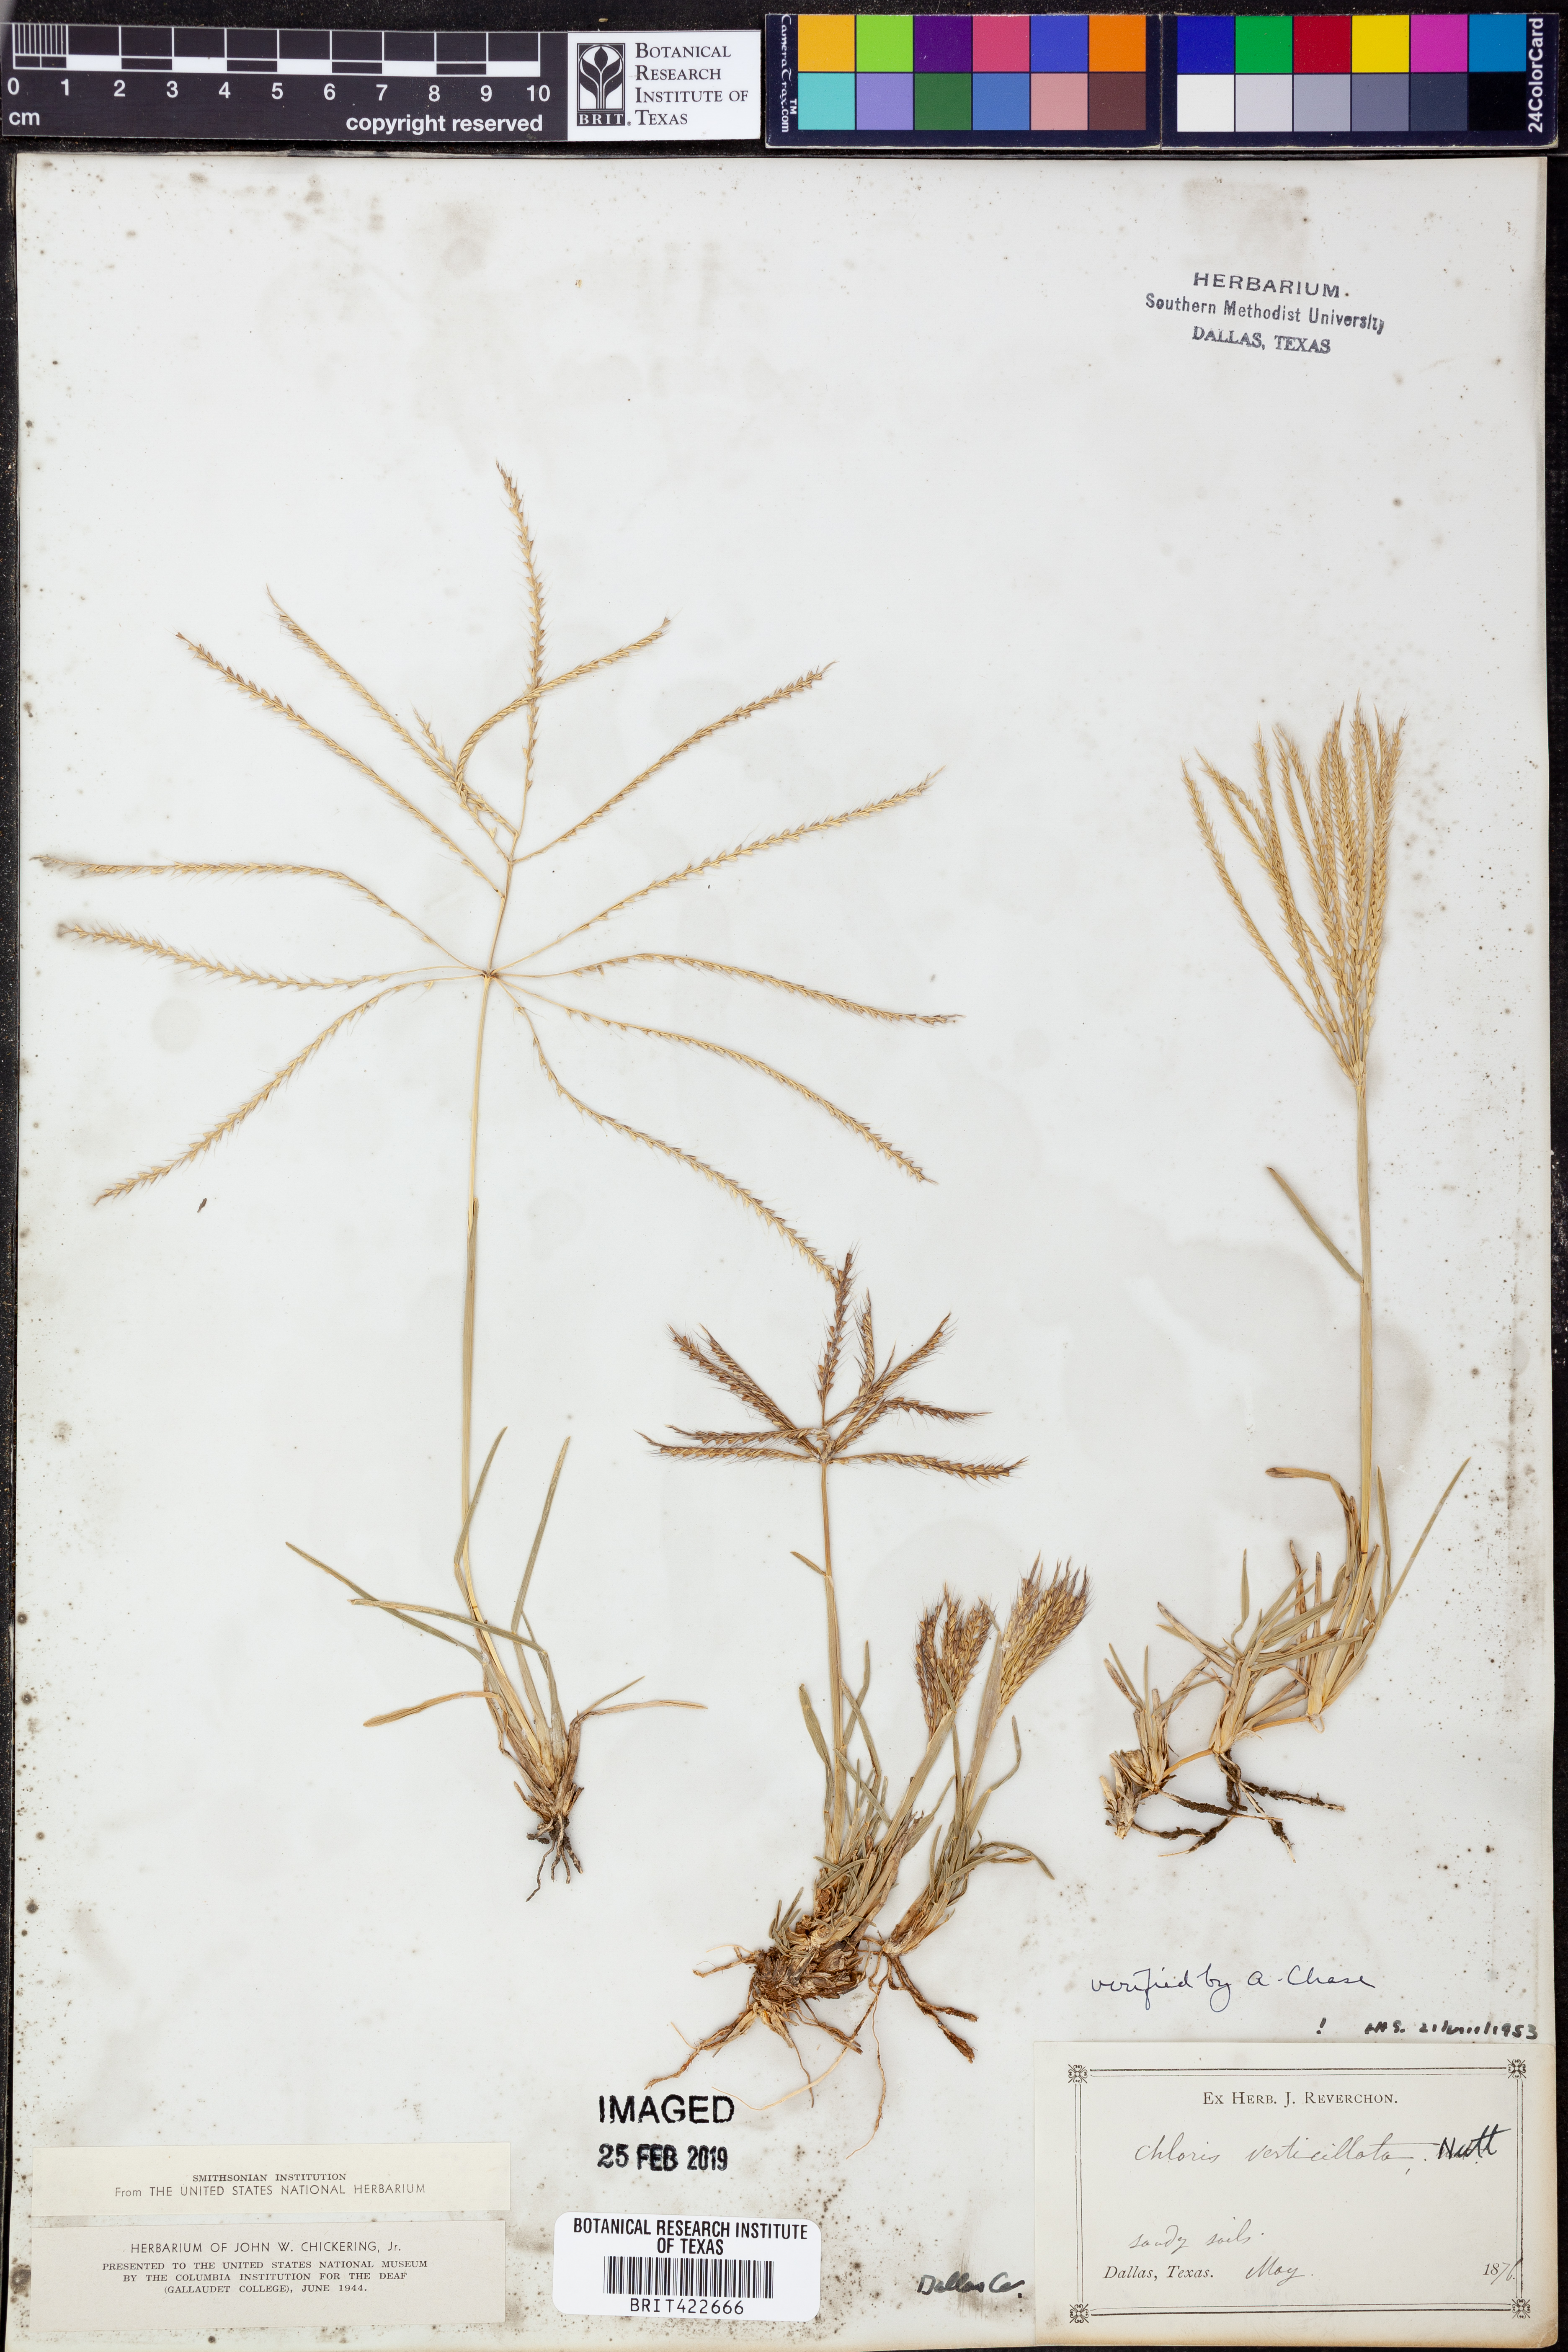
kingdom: Plantae
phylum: Tracheophyta
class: Liliopsida
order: Poales
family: Poaceae
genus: Chloris
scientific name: Chloris verticillata
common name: Tumble windmill grass
